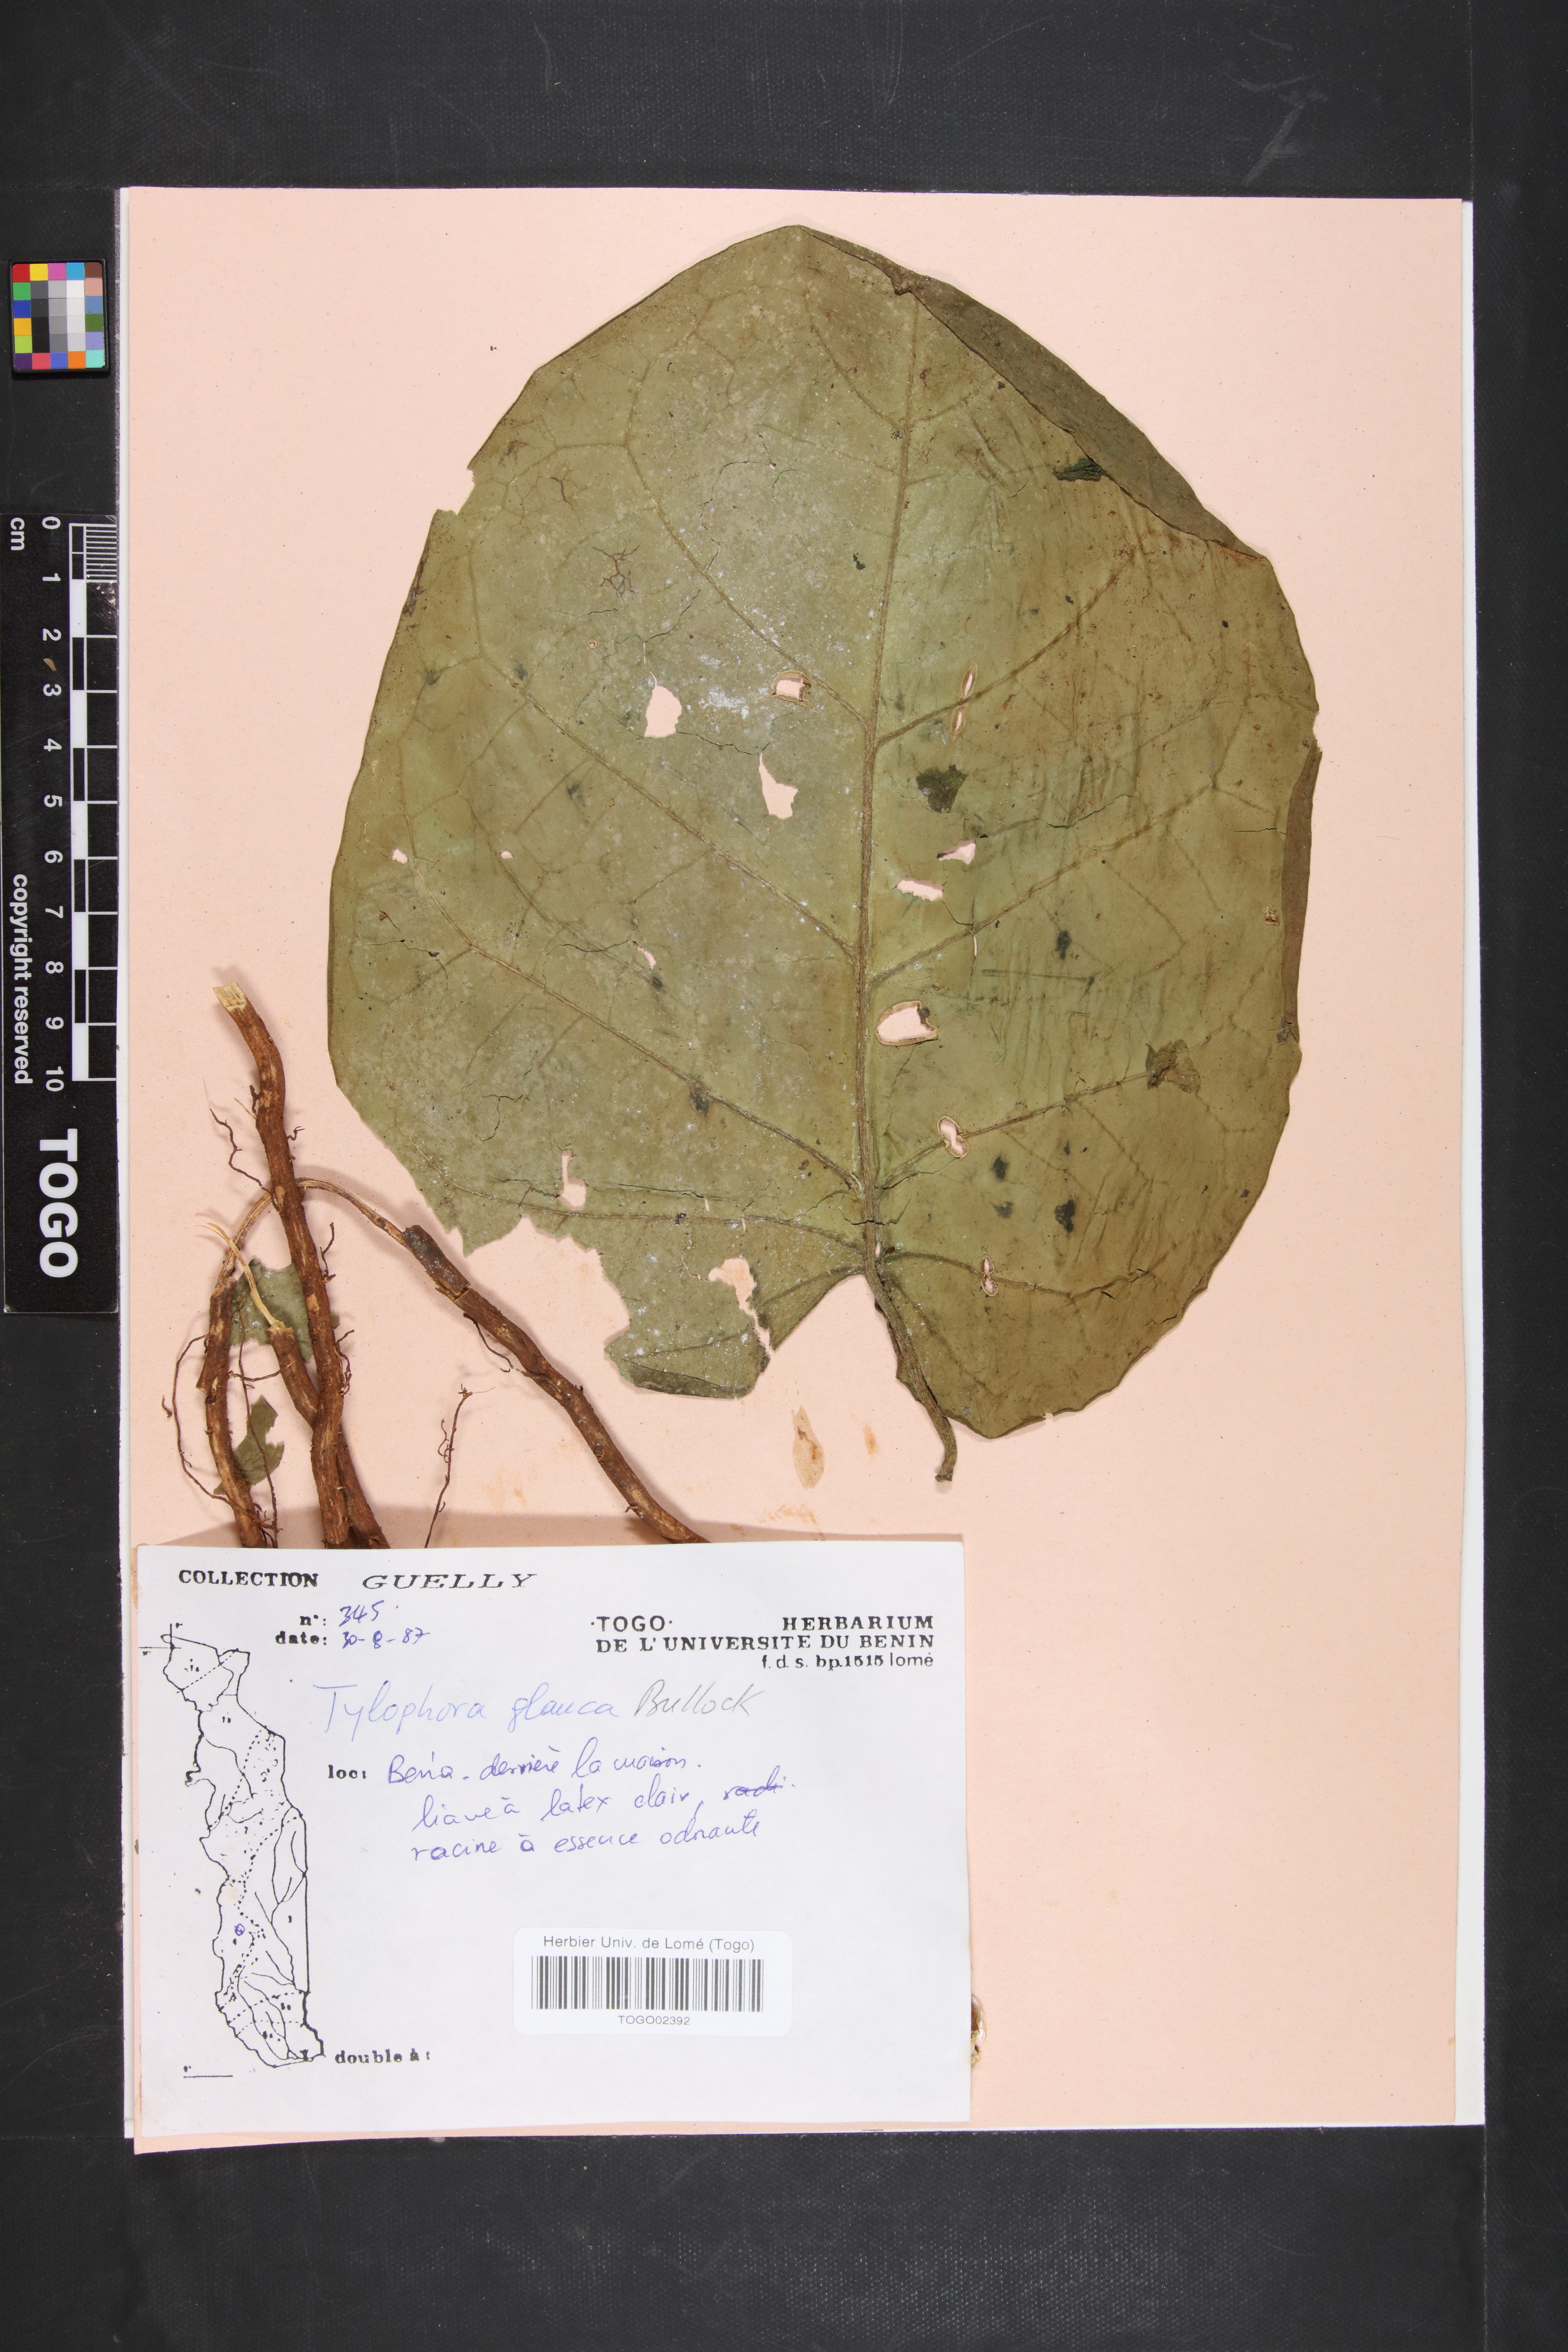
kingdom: Plantae
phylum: Tracheophyta
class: Magnoliopsida
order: Gentianales
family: Apocynaceae
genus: Vincetoxicum
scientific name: Vincetoxicum cameroonicum
